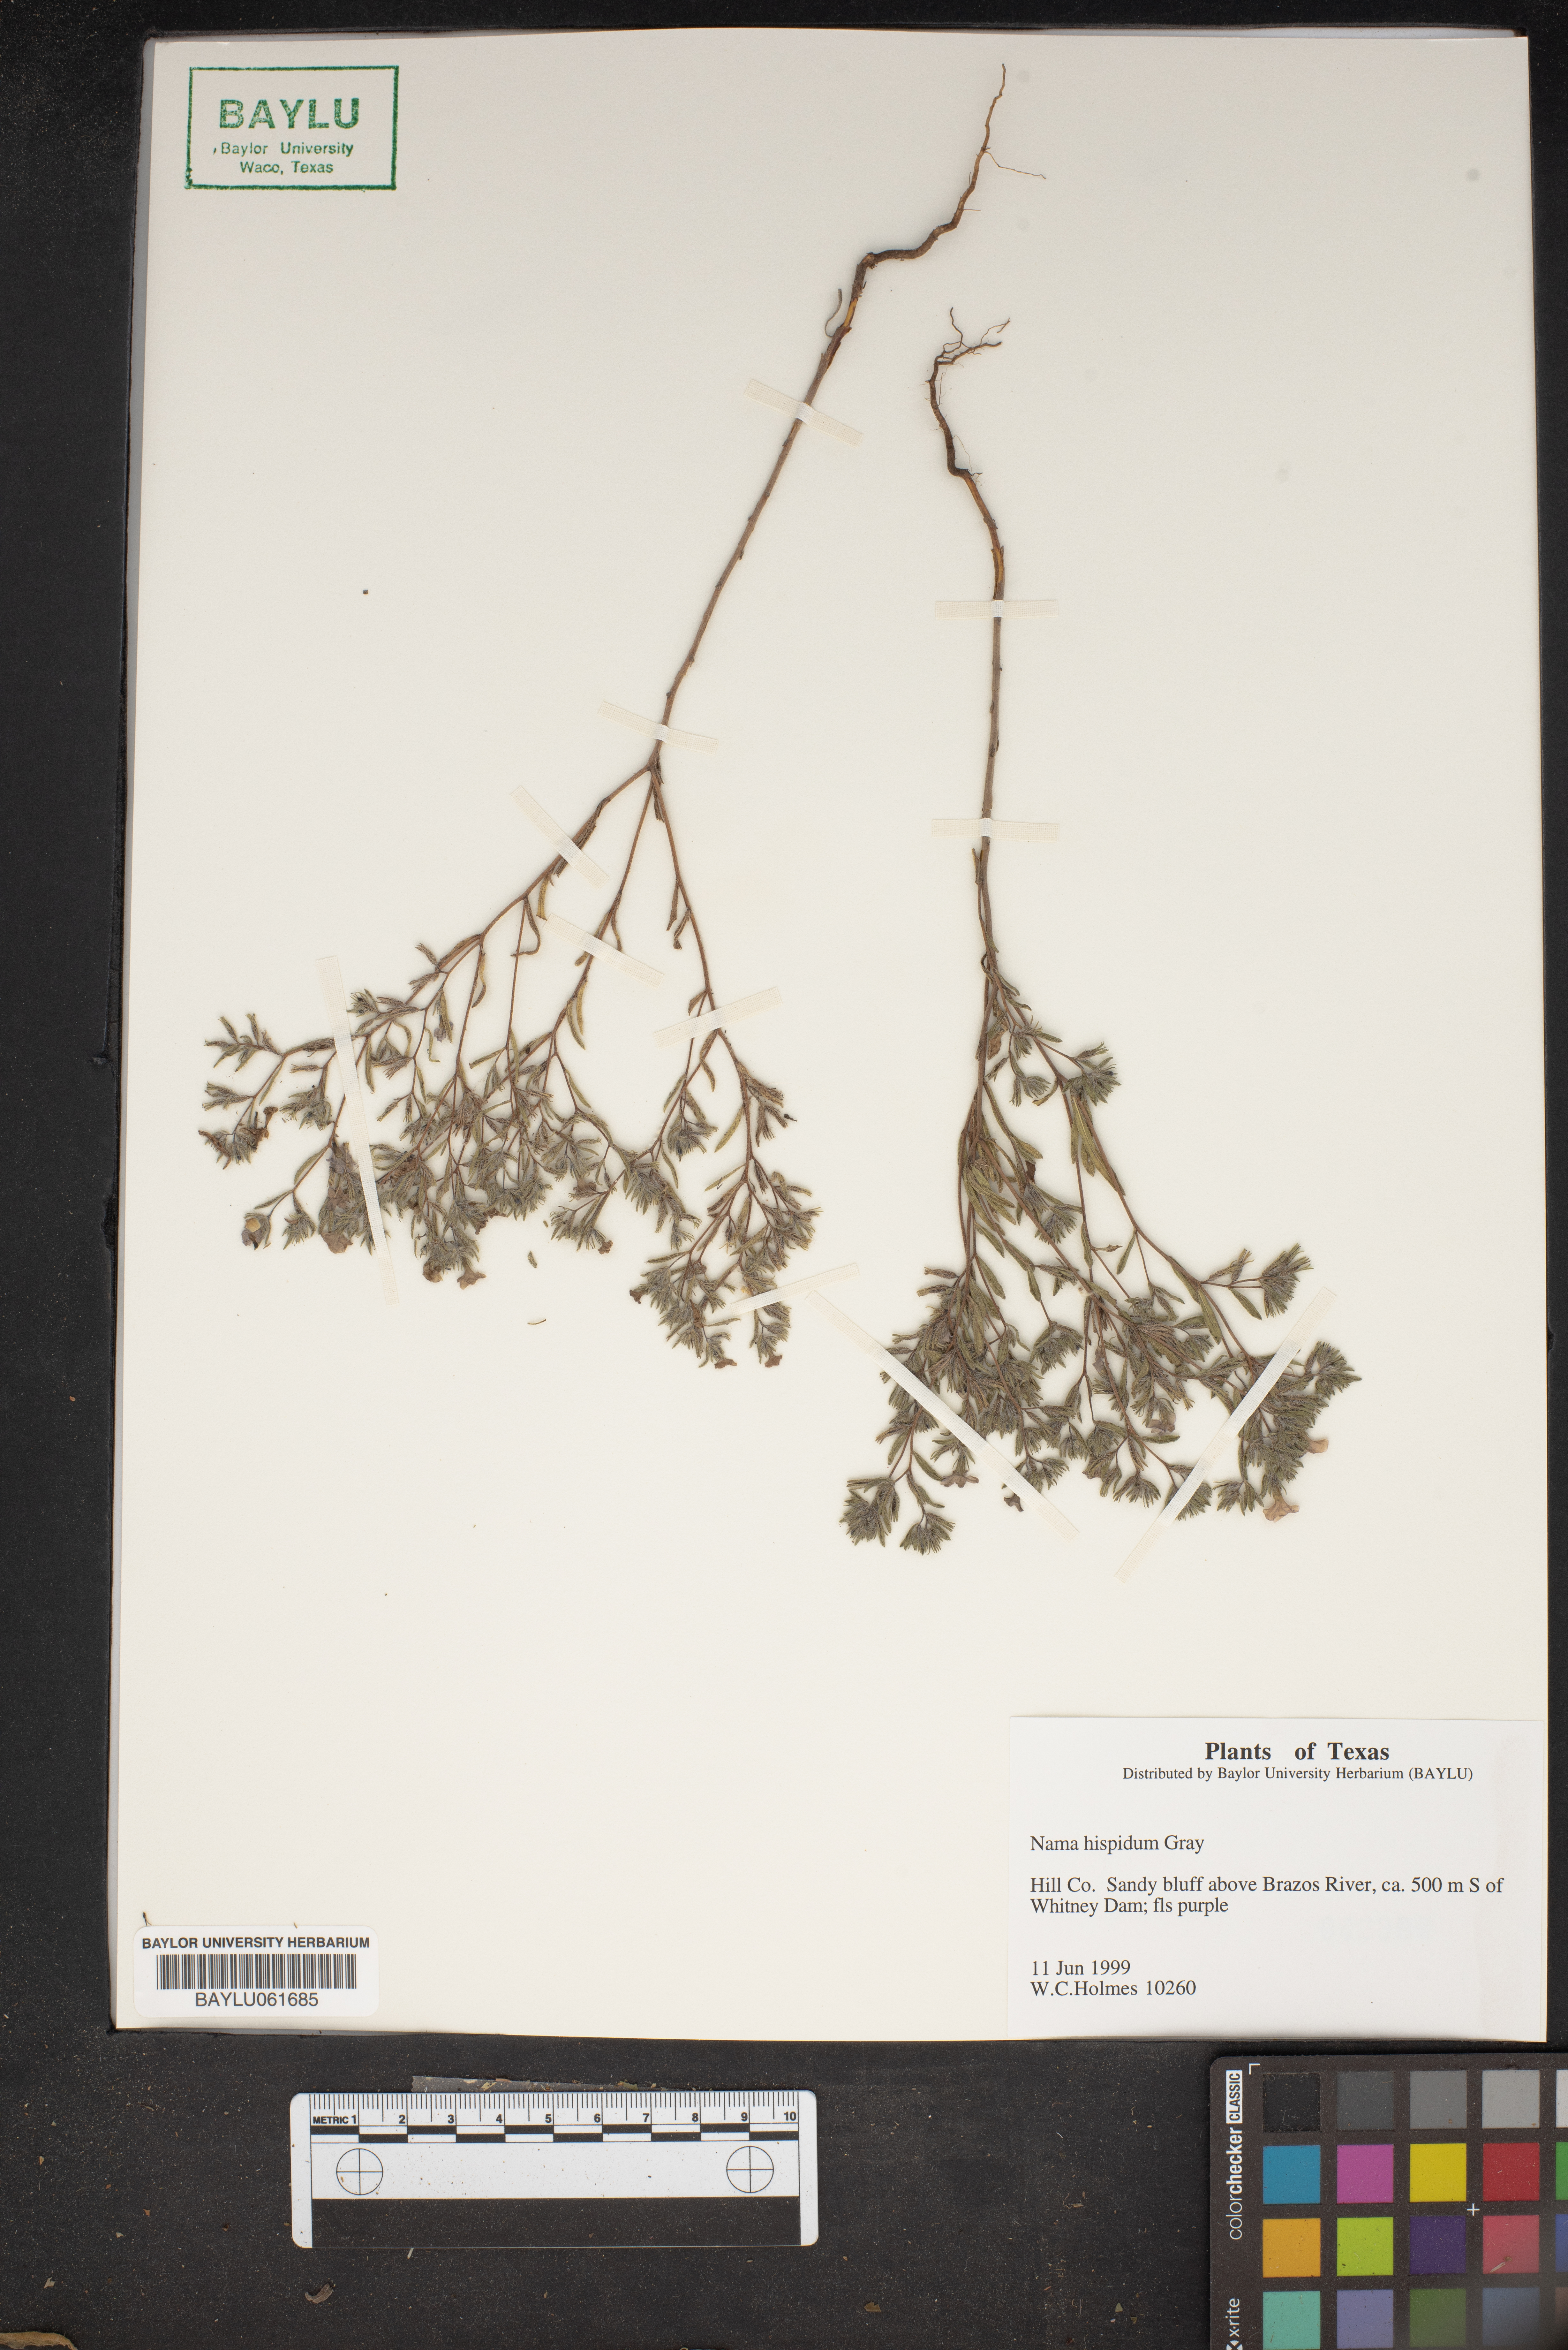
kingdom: Plantae
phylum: Tracheophyta
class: Magnoliopsida
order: Boraginales
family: Namaceae
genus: Nama
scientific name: Nama hispida
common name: Bristly nama
